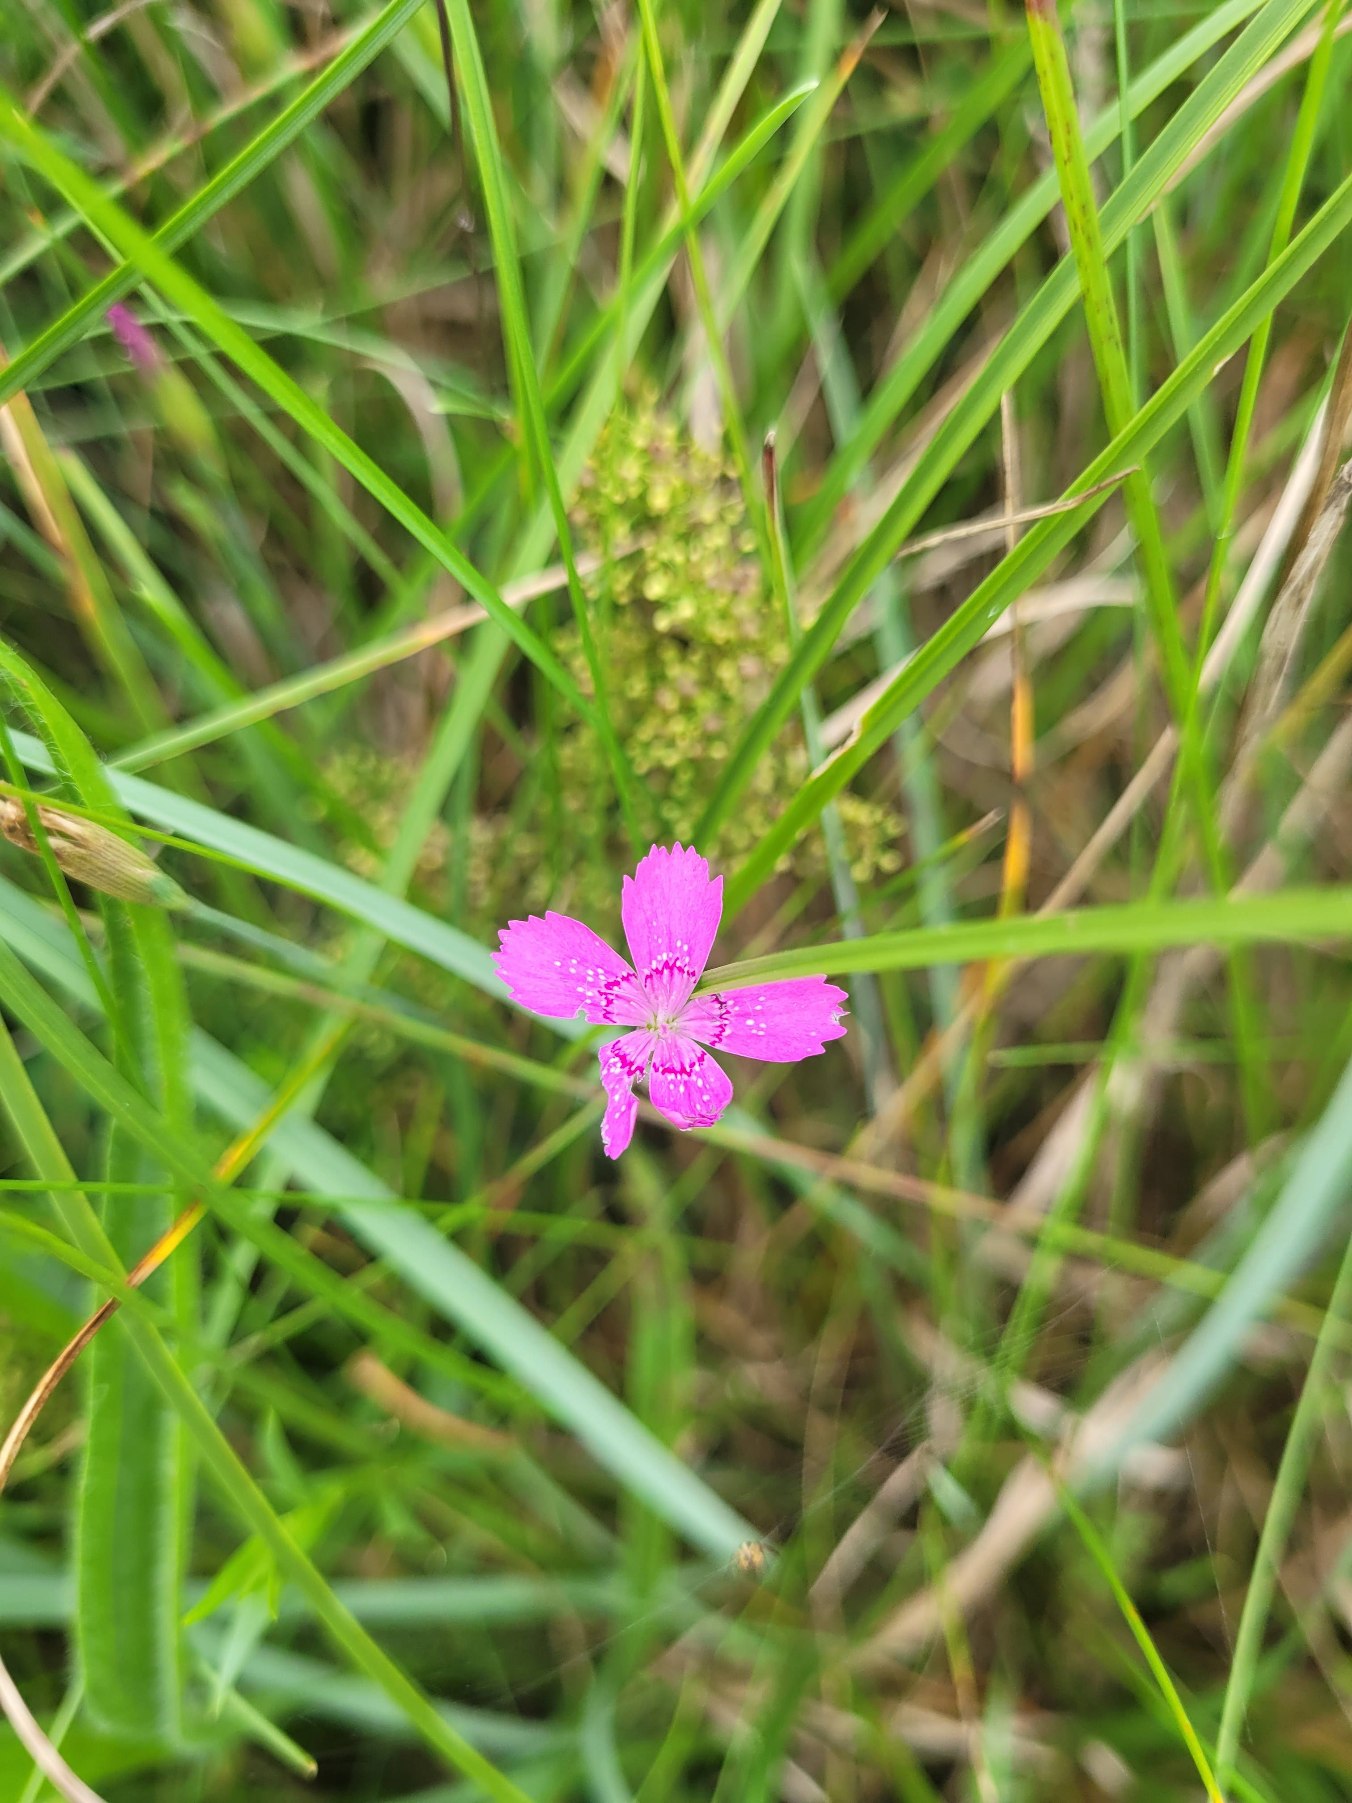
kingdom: Plantae
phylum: Tracheophyta
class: Magnoliopsida
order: Caryophyllales
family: Caryophyllaceae
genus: Dianthus
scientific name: Dianthus deltoides
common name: Bakke-nellike
